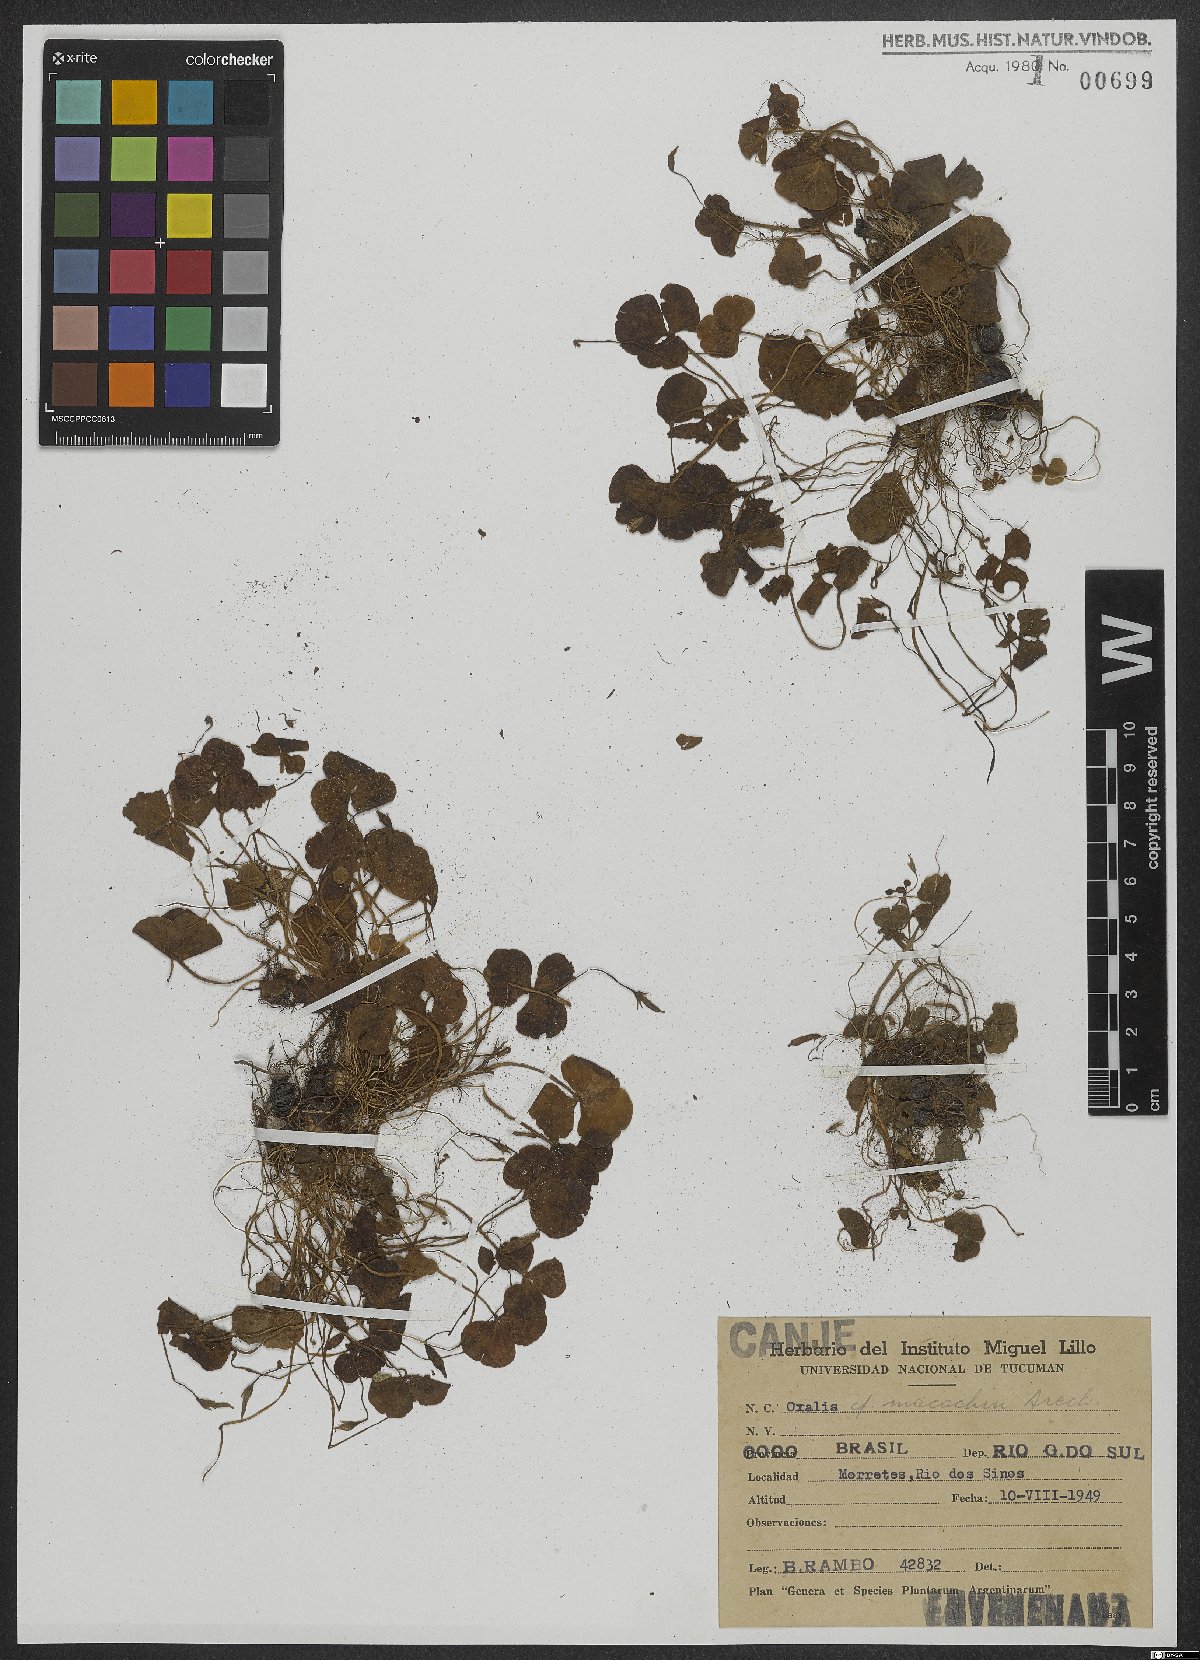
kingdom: Plantae
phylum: Tracheophyta
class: Magnoliopsida
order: Oxalidales
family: Oxalidaceae
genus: Oxalis
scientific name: Oxalis brasiliensis
